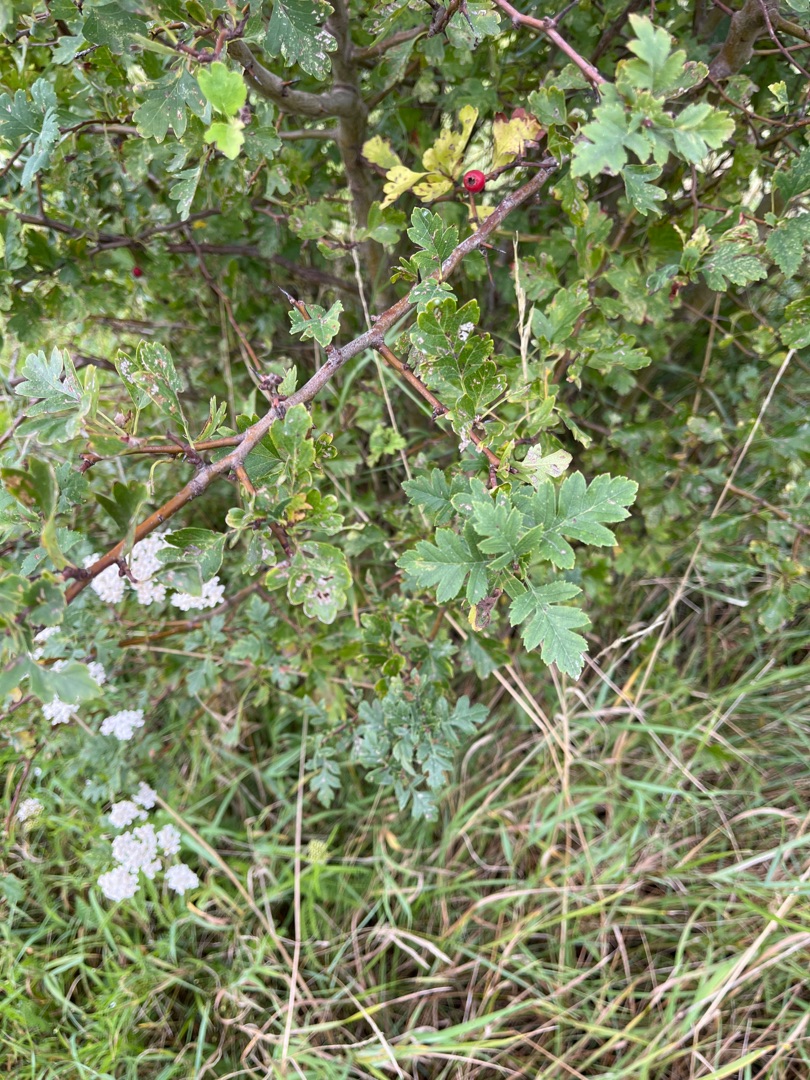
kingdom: Plantae
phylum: Tracheophyta
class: Magnoliopsida
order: Rosales
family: Rosaceae
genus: Crataegus
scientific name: Crataegus monogyna
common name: Engriflet hvidtjørn
